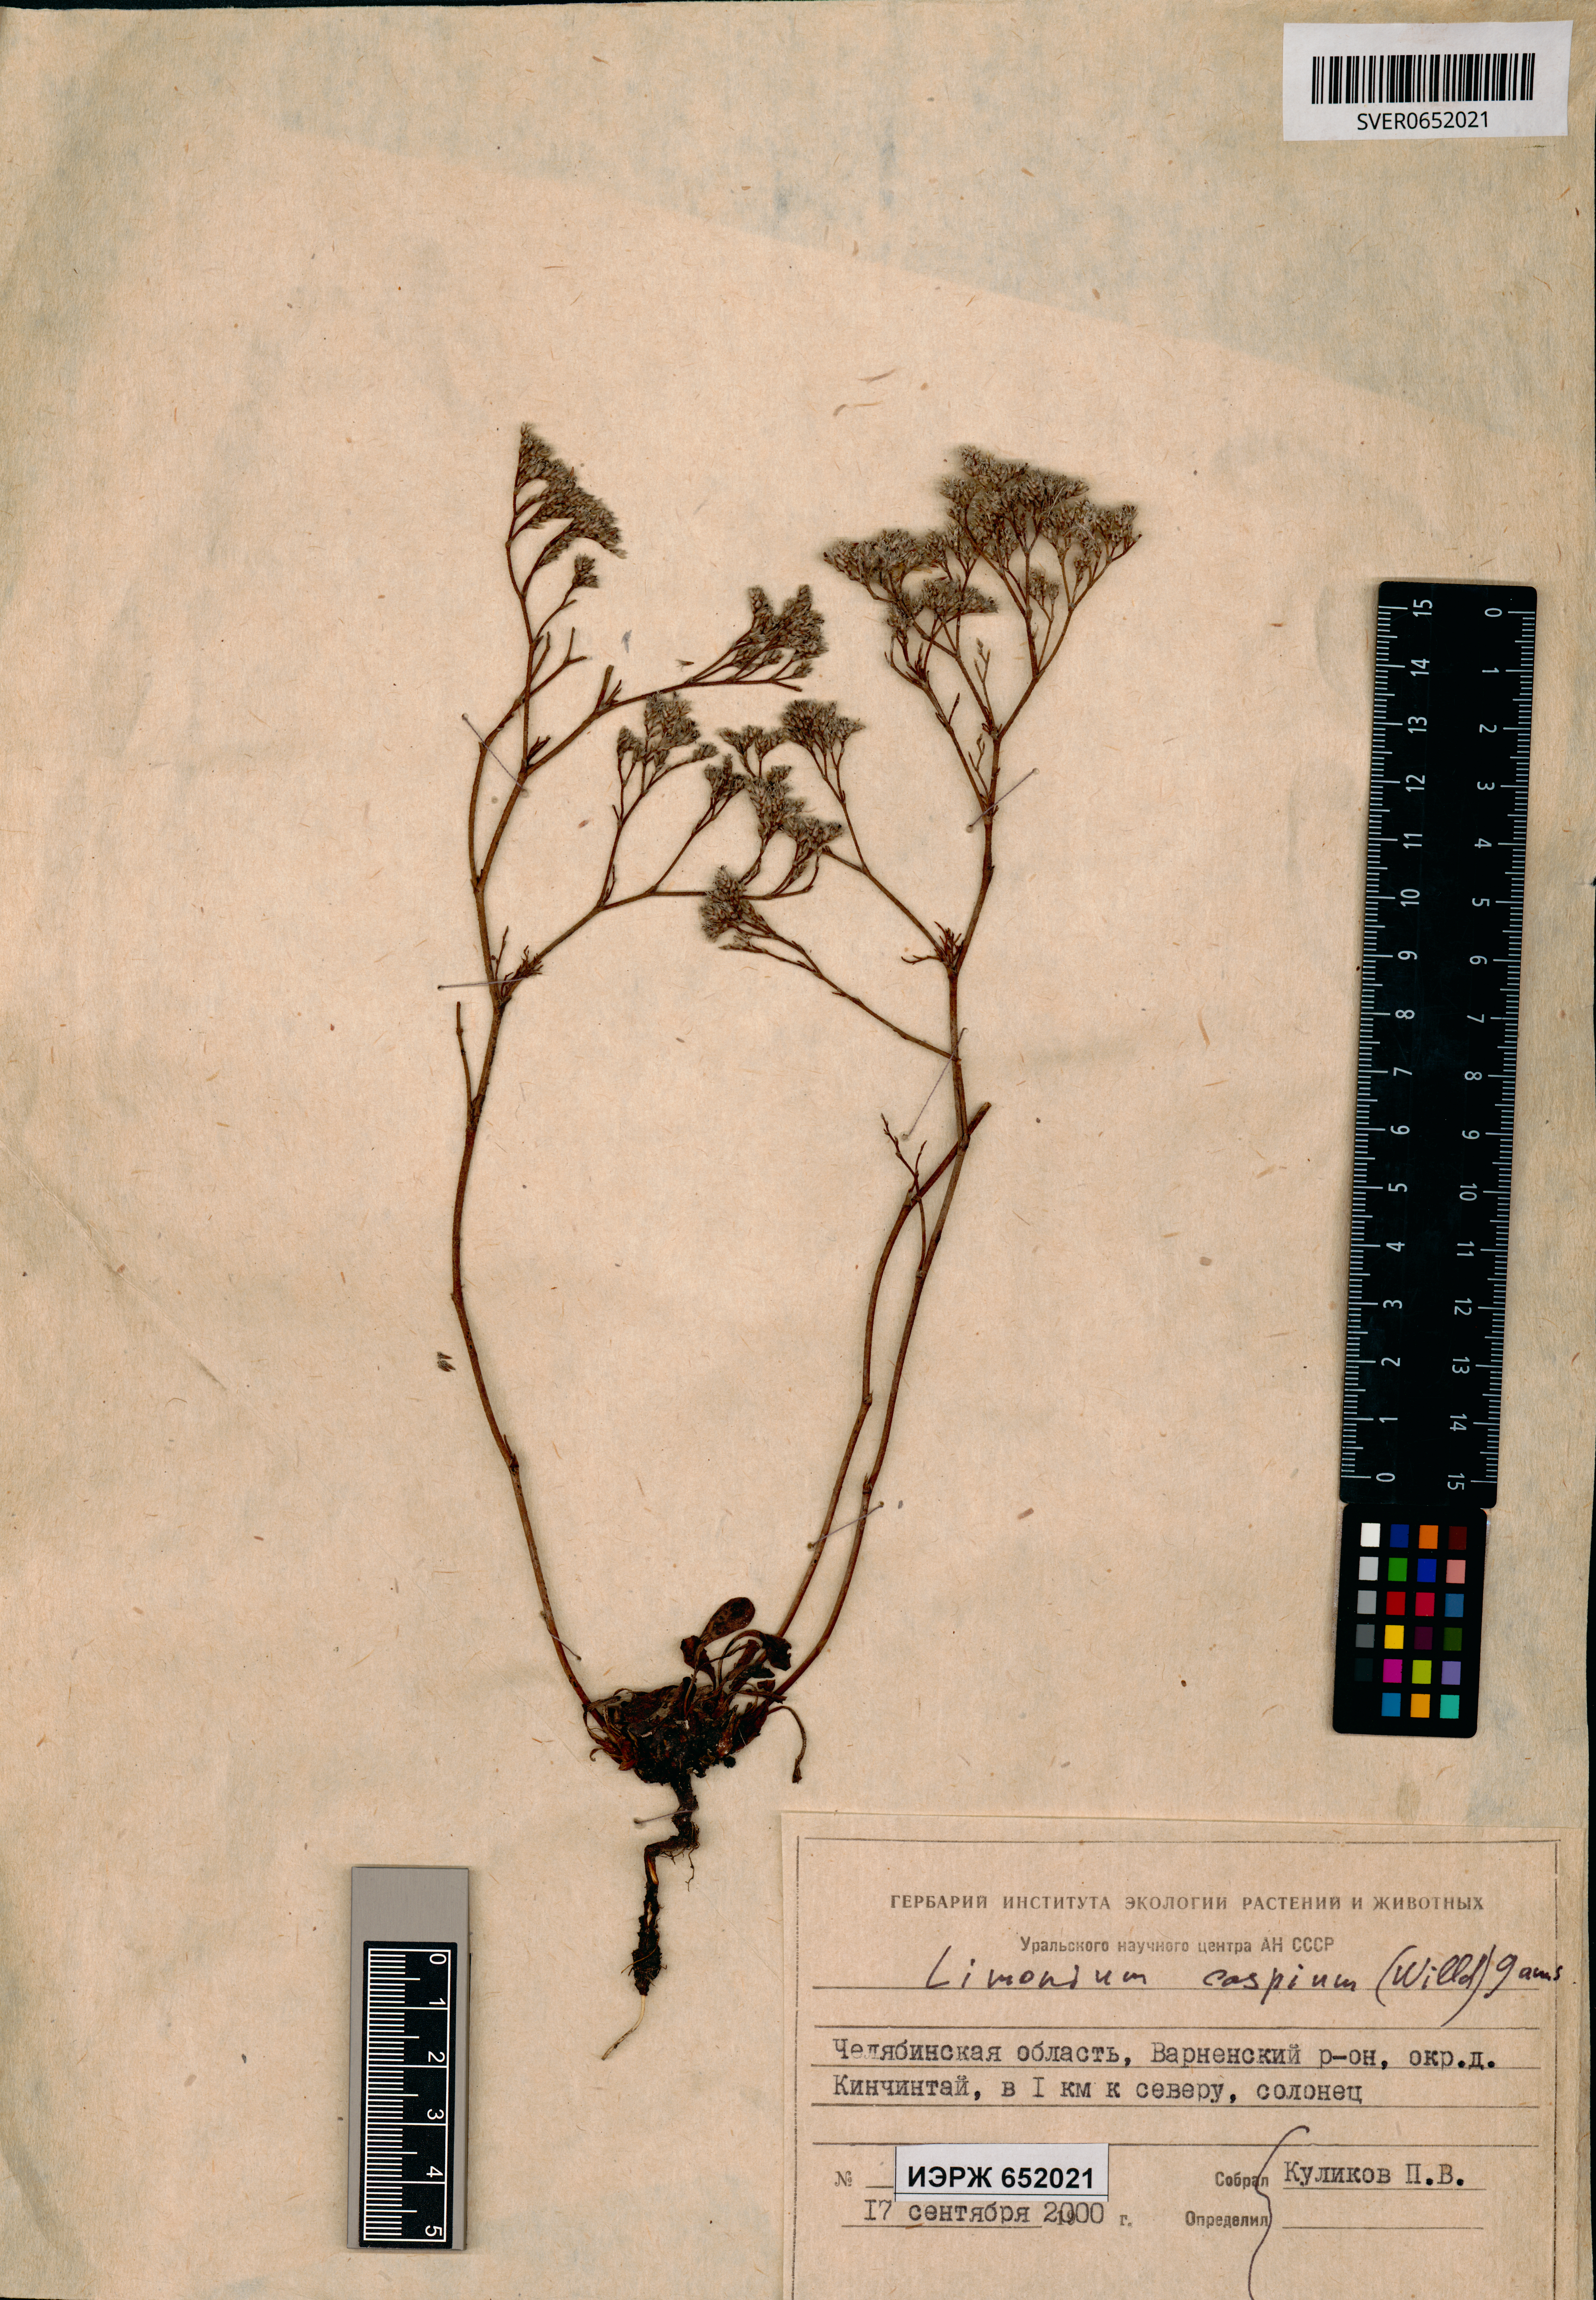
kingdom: Plantae
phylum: Tracheophyta
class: Magnoliopsida
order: Caryophyllales
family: Plumbaginaceae
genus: Limonium
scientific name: Limonium bellidifolium
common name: Matted sea-lavender
